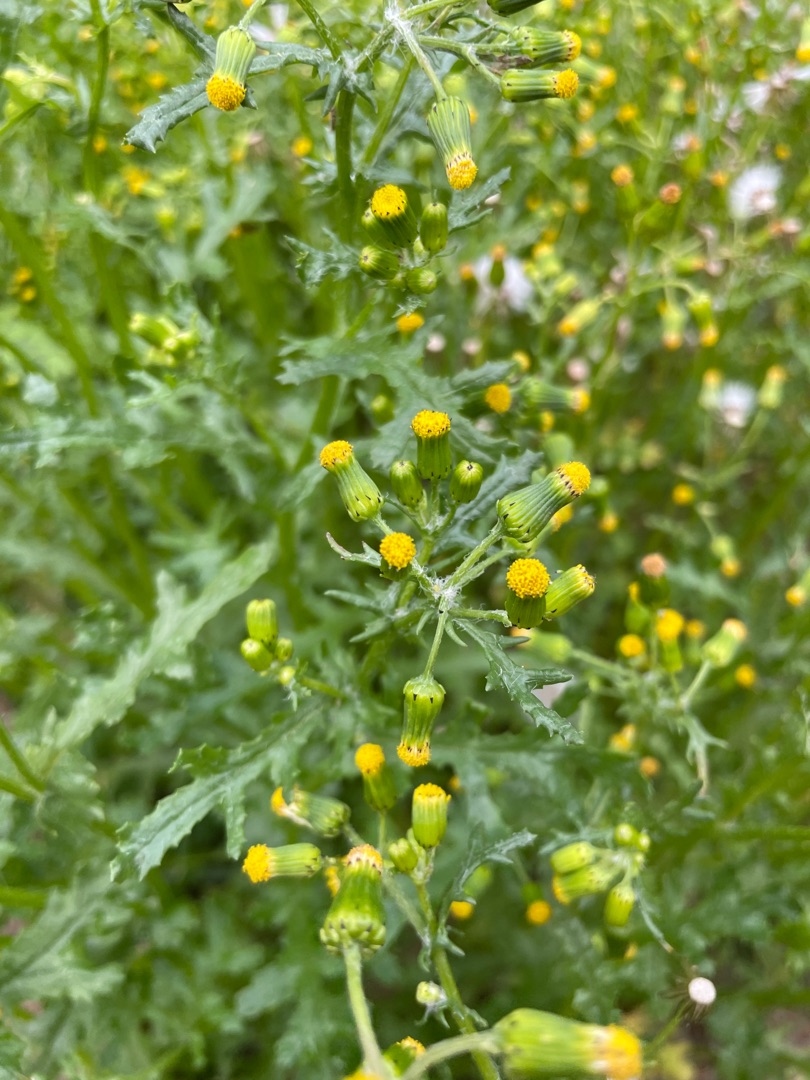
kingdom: Plantae
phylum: Tracheophyta
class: Magnoliopsida
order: Asterales
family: Asteraceae
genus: Senecio
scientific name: Senecio vulgaris
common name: Almindelig brandbæger
